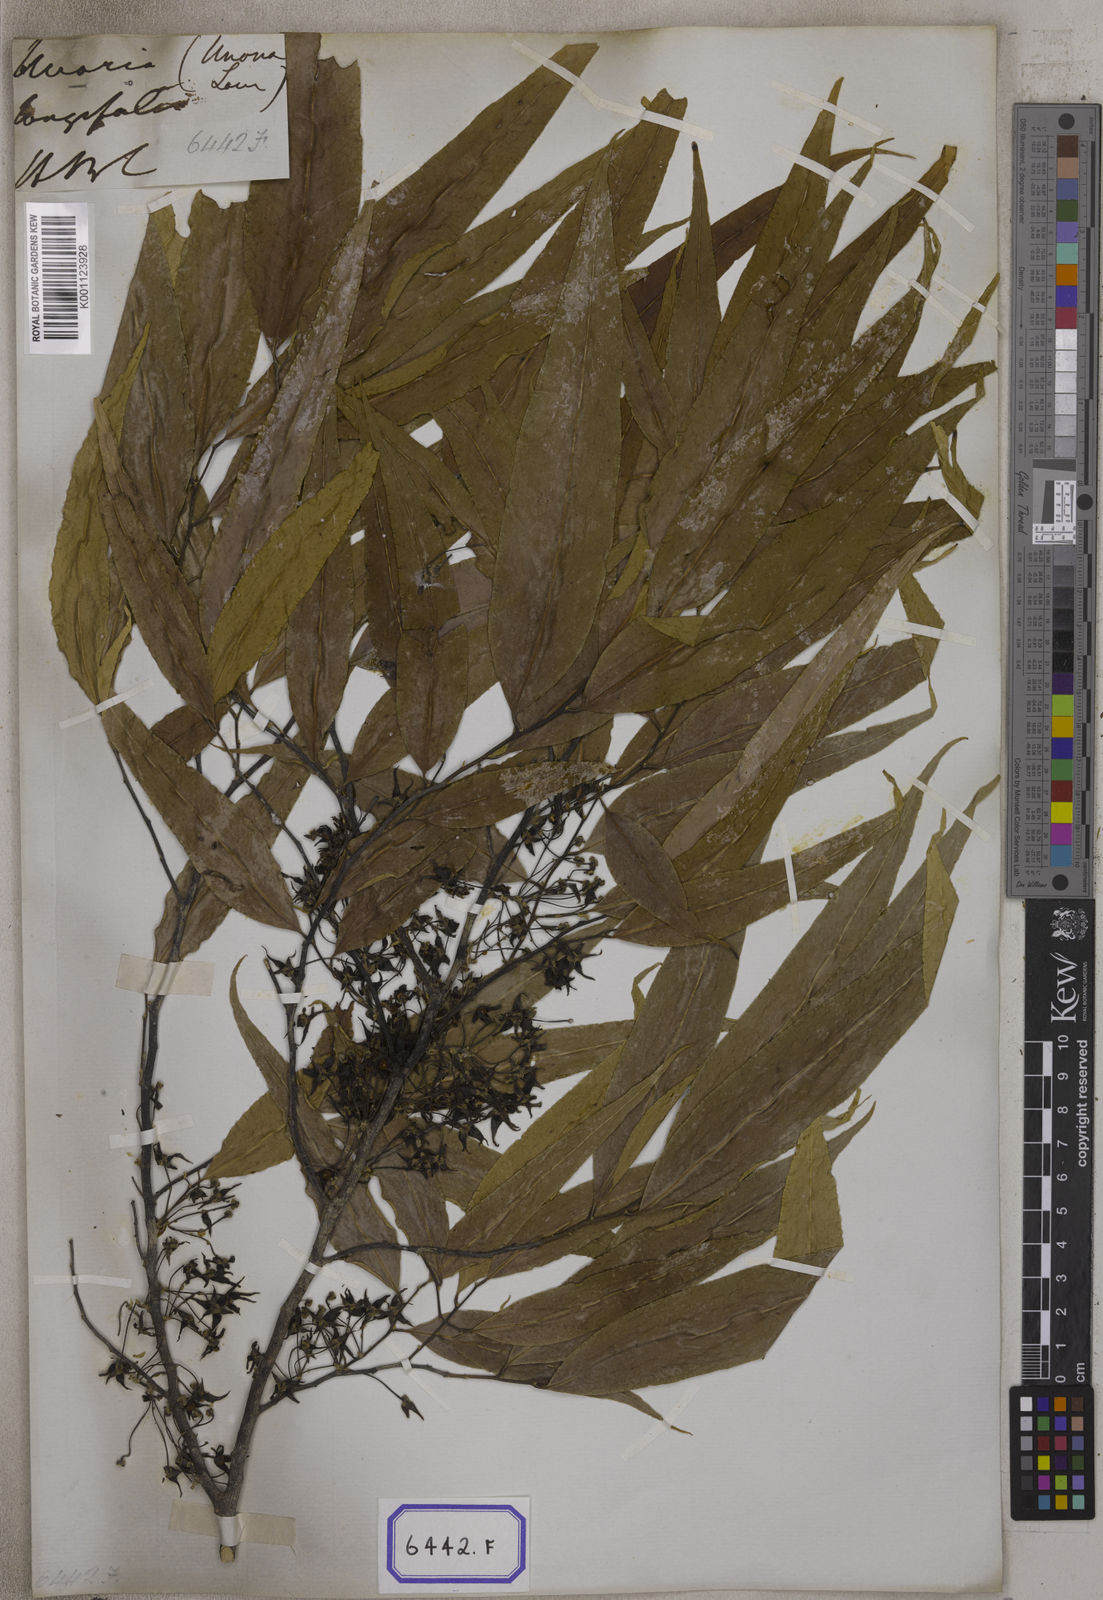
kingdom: Plantae
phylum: Tracheophyta
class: Magnoliopsida
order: Magnoliales
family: Annonaceae
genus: Polyalthia
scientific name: Polyalthia longifolia
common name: Cemetery-tree
